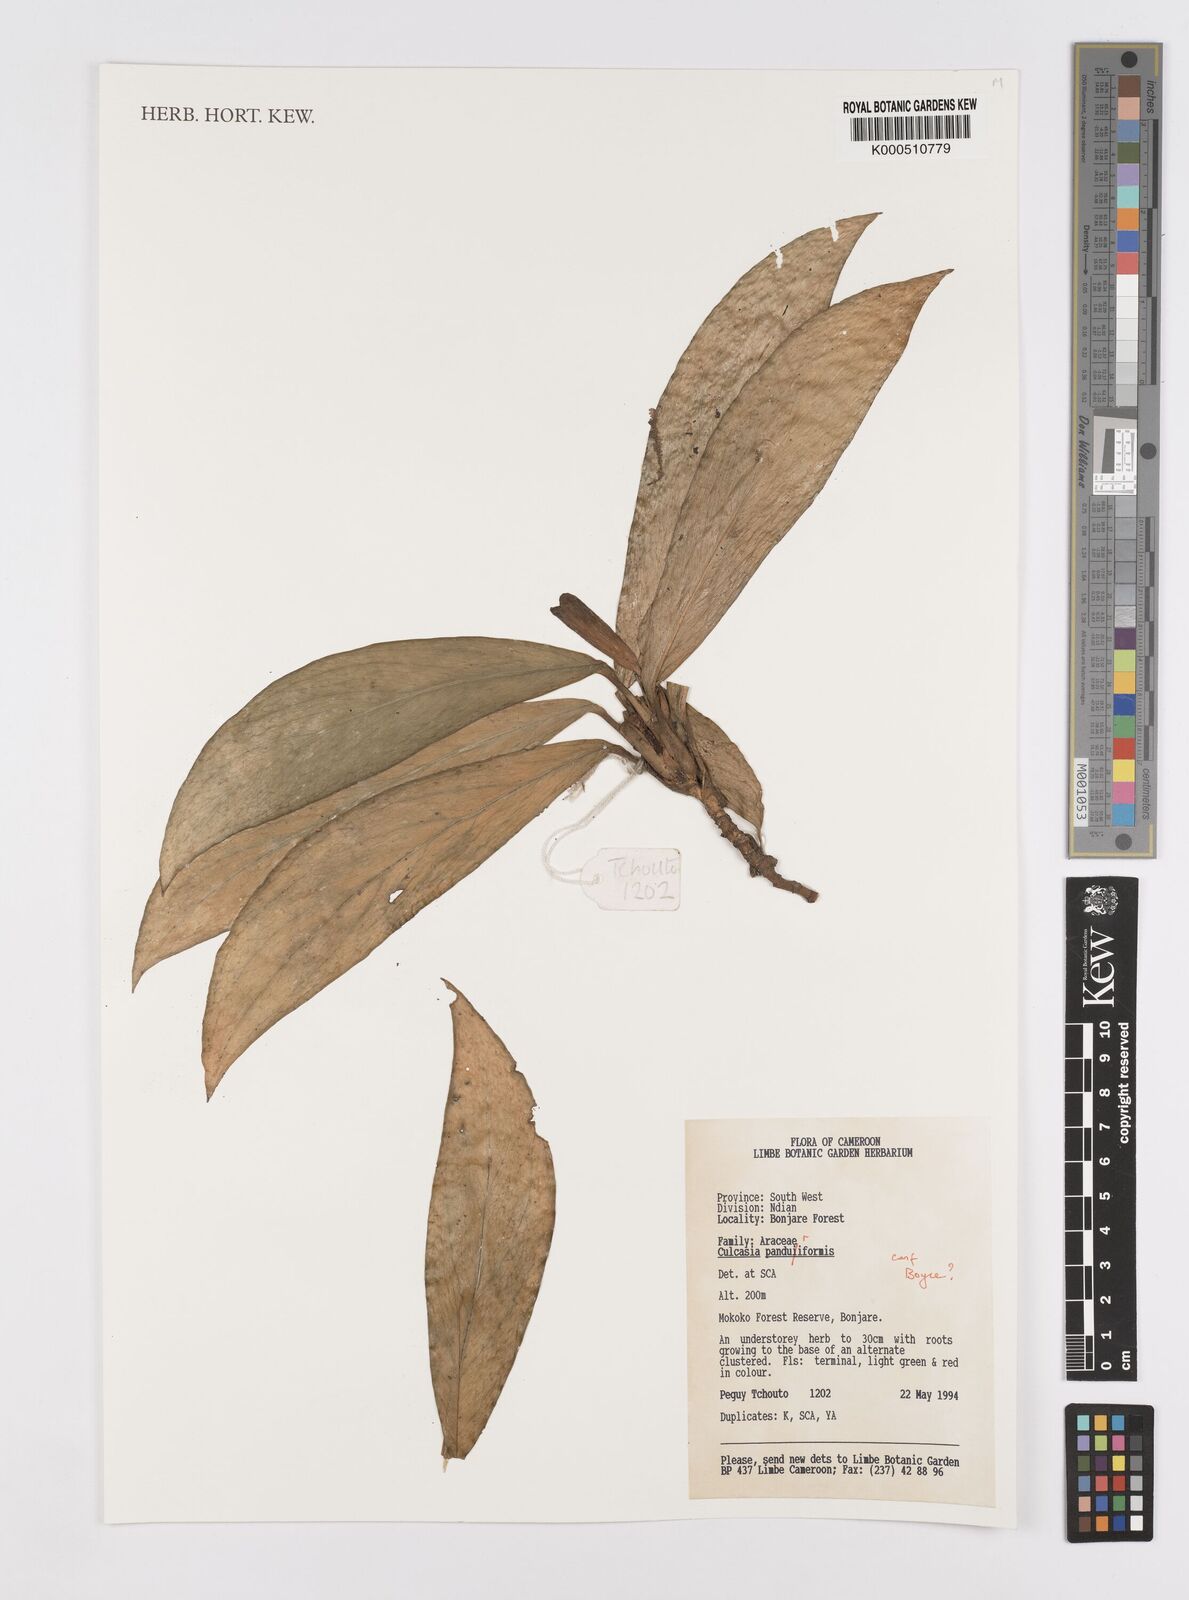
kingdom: Plantae
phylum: Tracheophyta
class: Liliopsida
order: Alismatales
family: Araceae
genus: Culcasia
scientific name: Culcasia panduriformis
